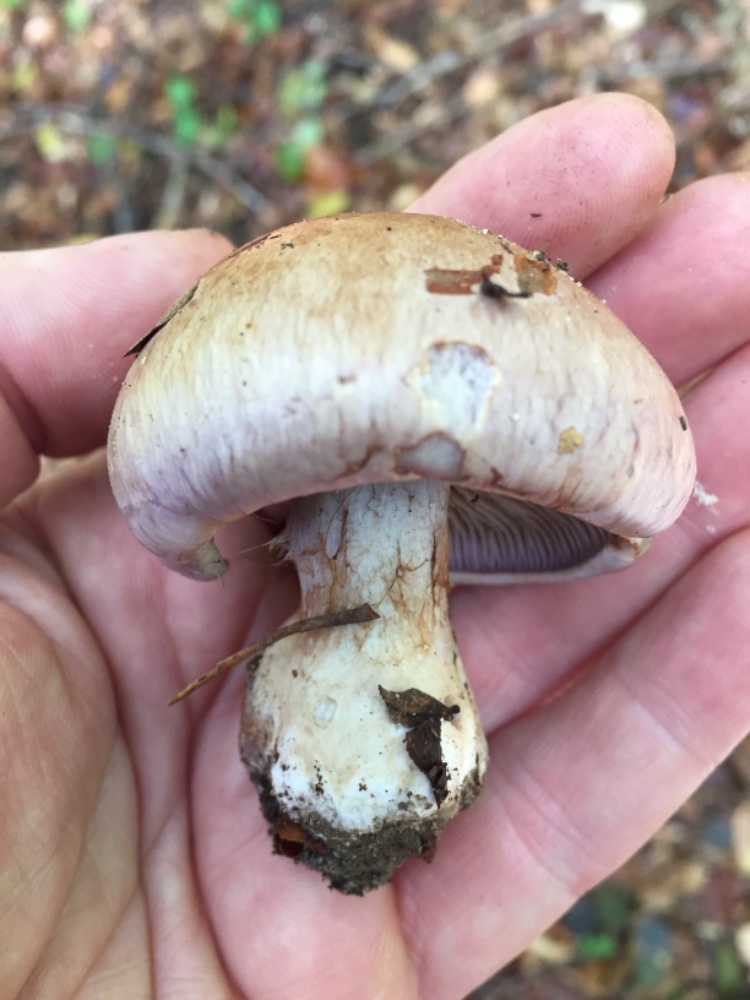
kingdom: Fungi
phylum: Basidiomycota
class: Agaricomycetes
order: Agaricales
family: Cortinariaceae
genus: Cortinarius
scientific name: Cortinarius variecolor
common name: violetagtig slørhat
